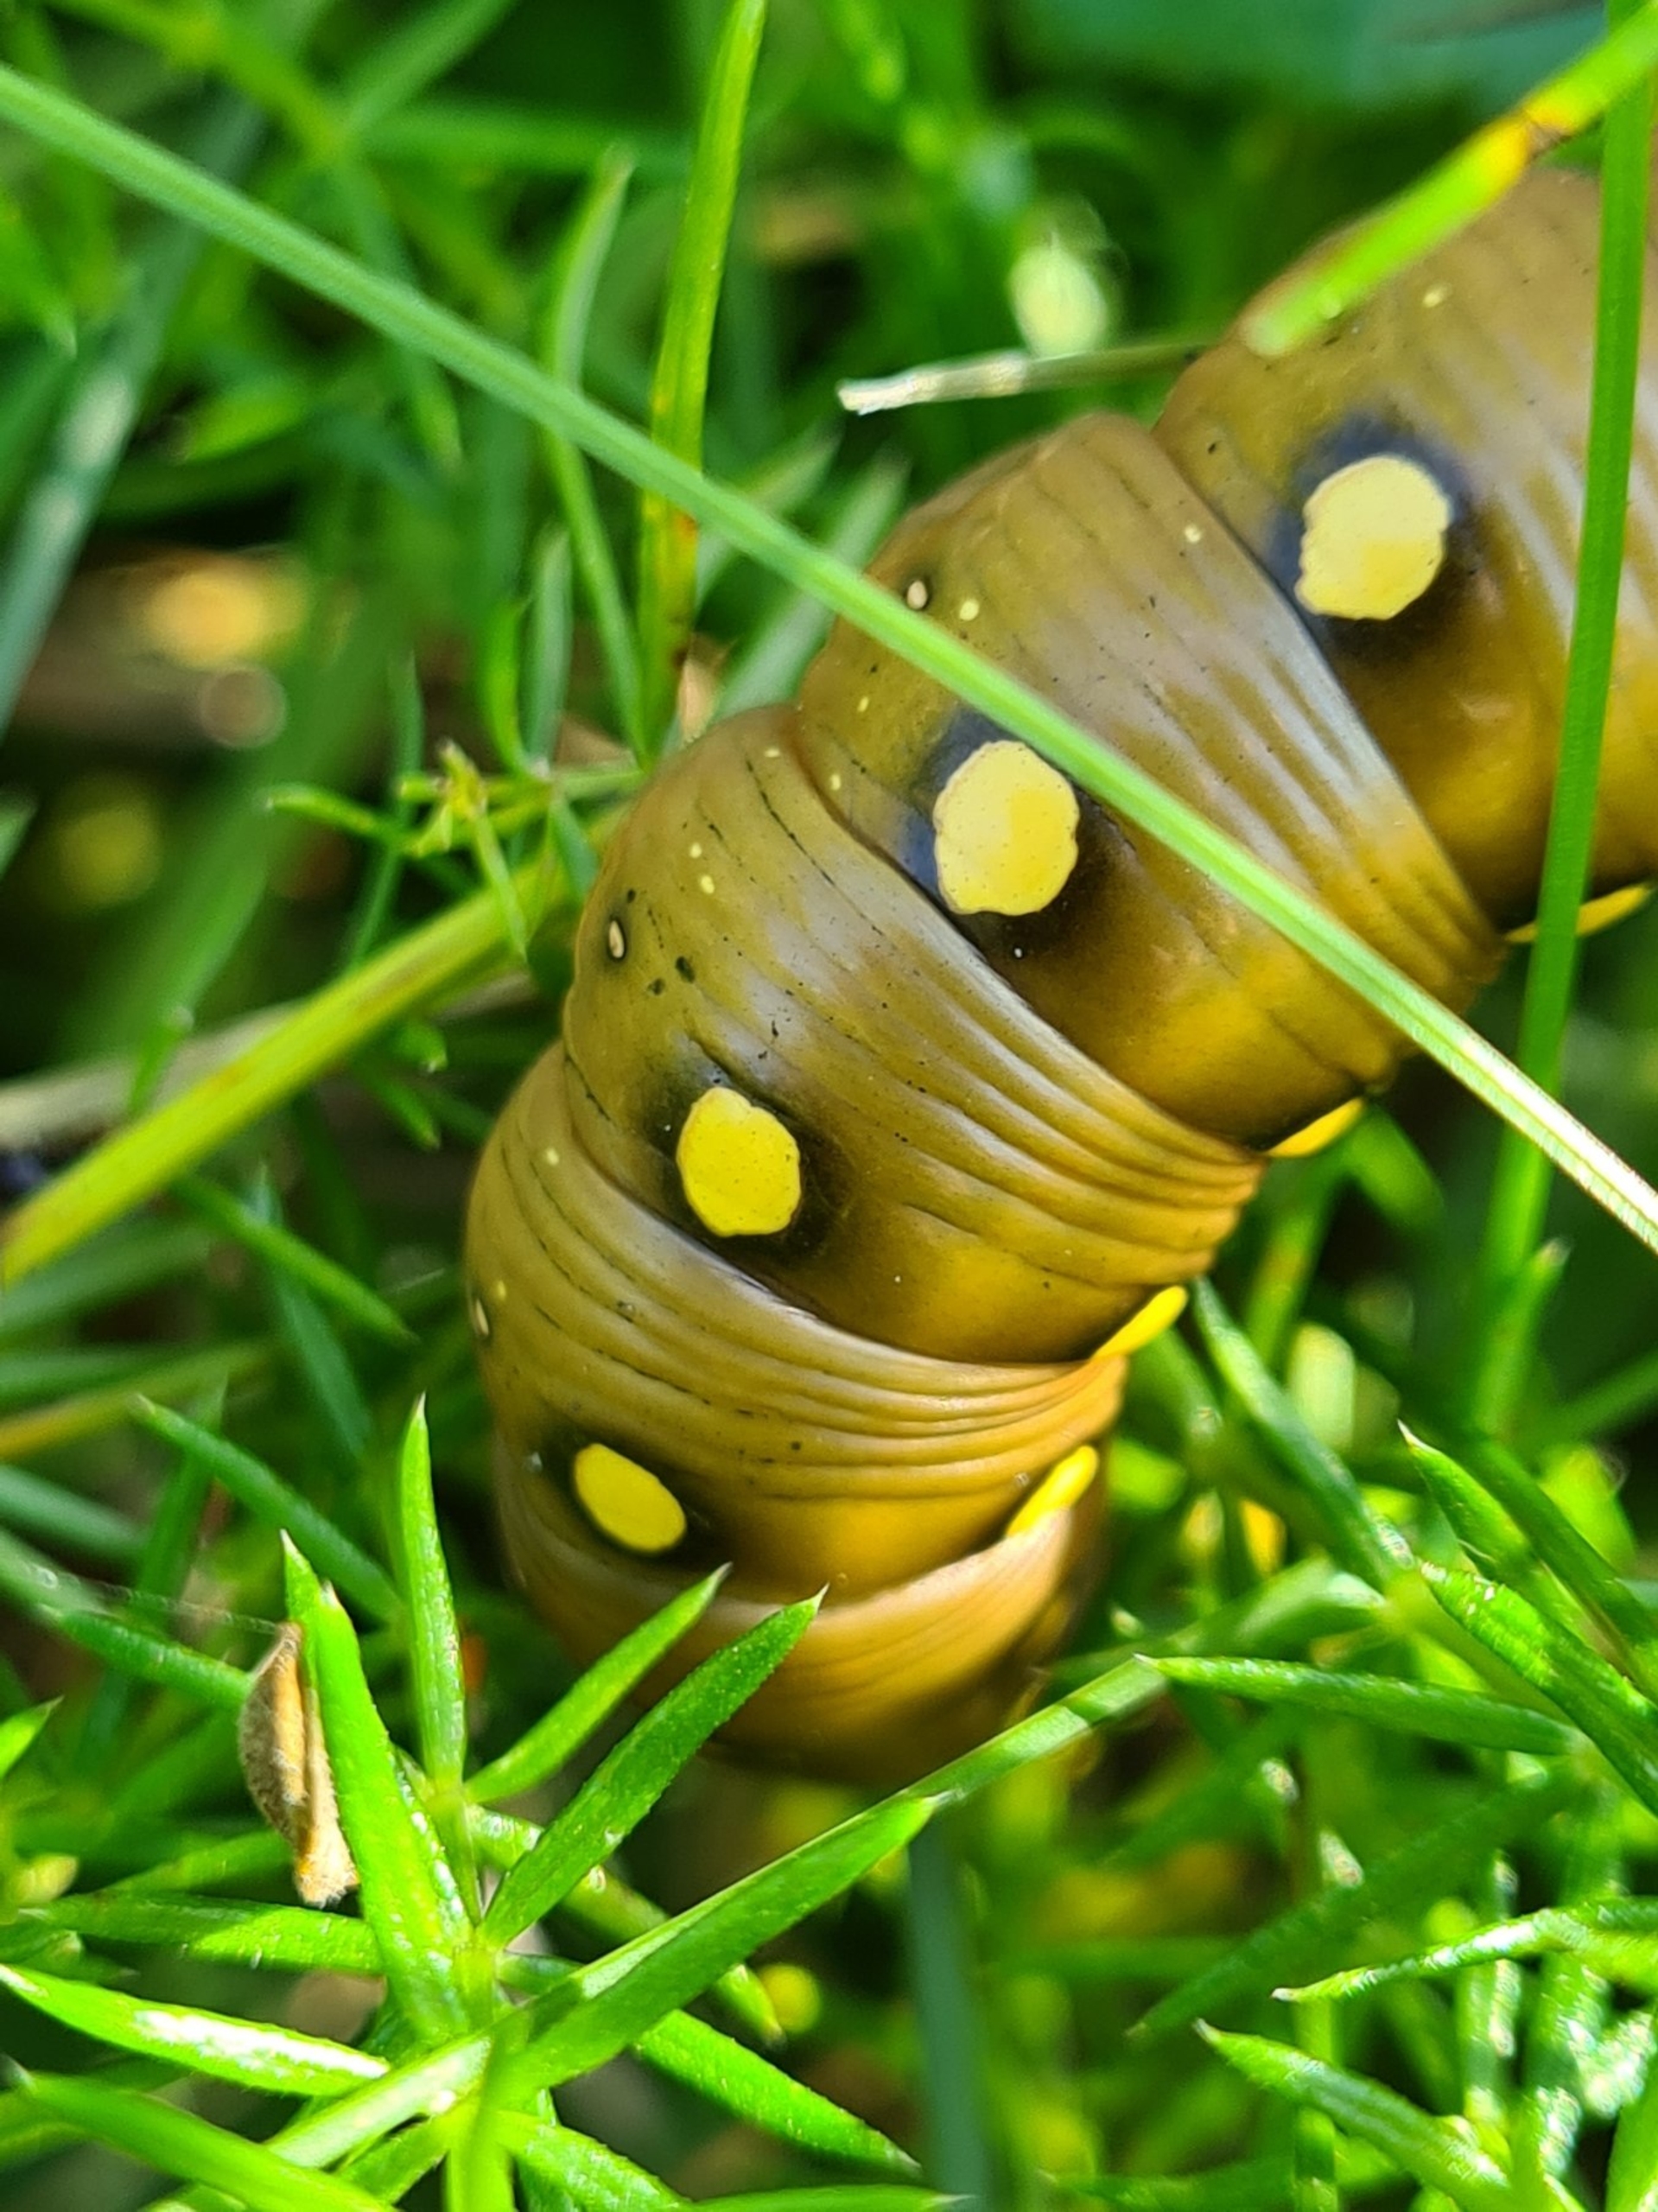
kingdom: Animalia
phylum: Arthropoda
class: Insecta
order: Lepidoptera
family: Sphingidae
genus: Hyles
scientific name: Hyles gallii
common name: Snerresværmer
